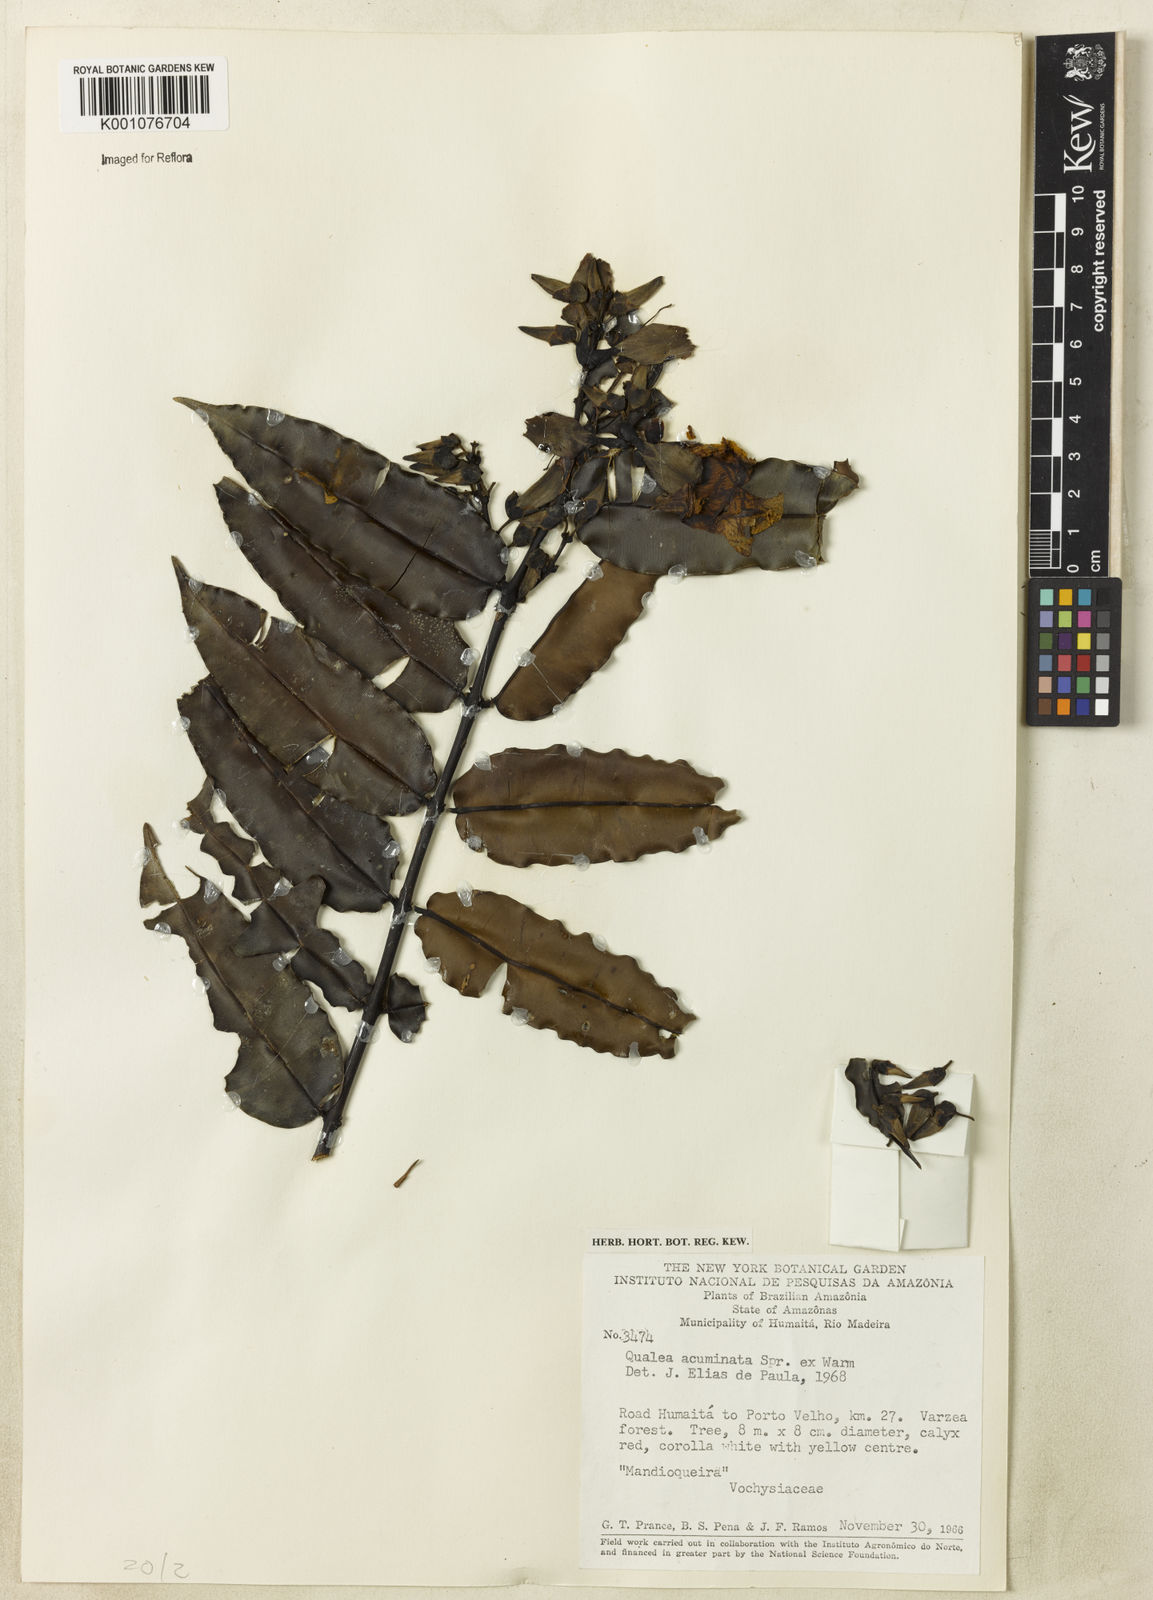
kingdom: Plantae
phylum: Tracheophyta
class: Magnoliopsida
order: Myrtales
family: Vochysiaceae
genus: Qualea
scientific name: Qualea acuminata
